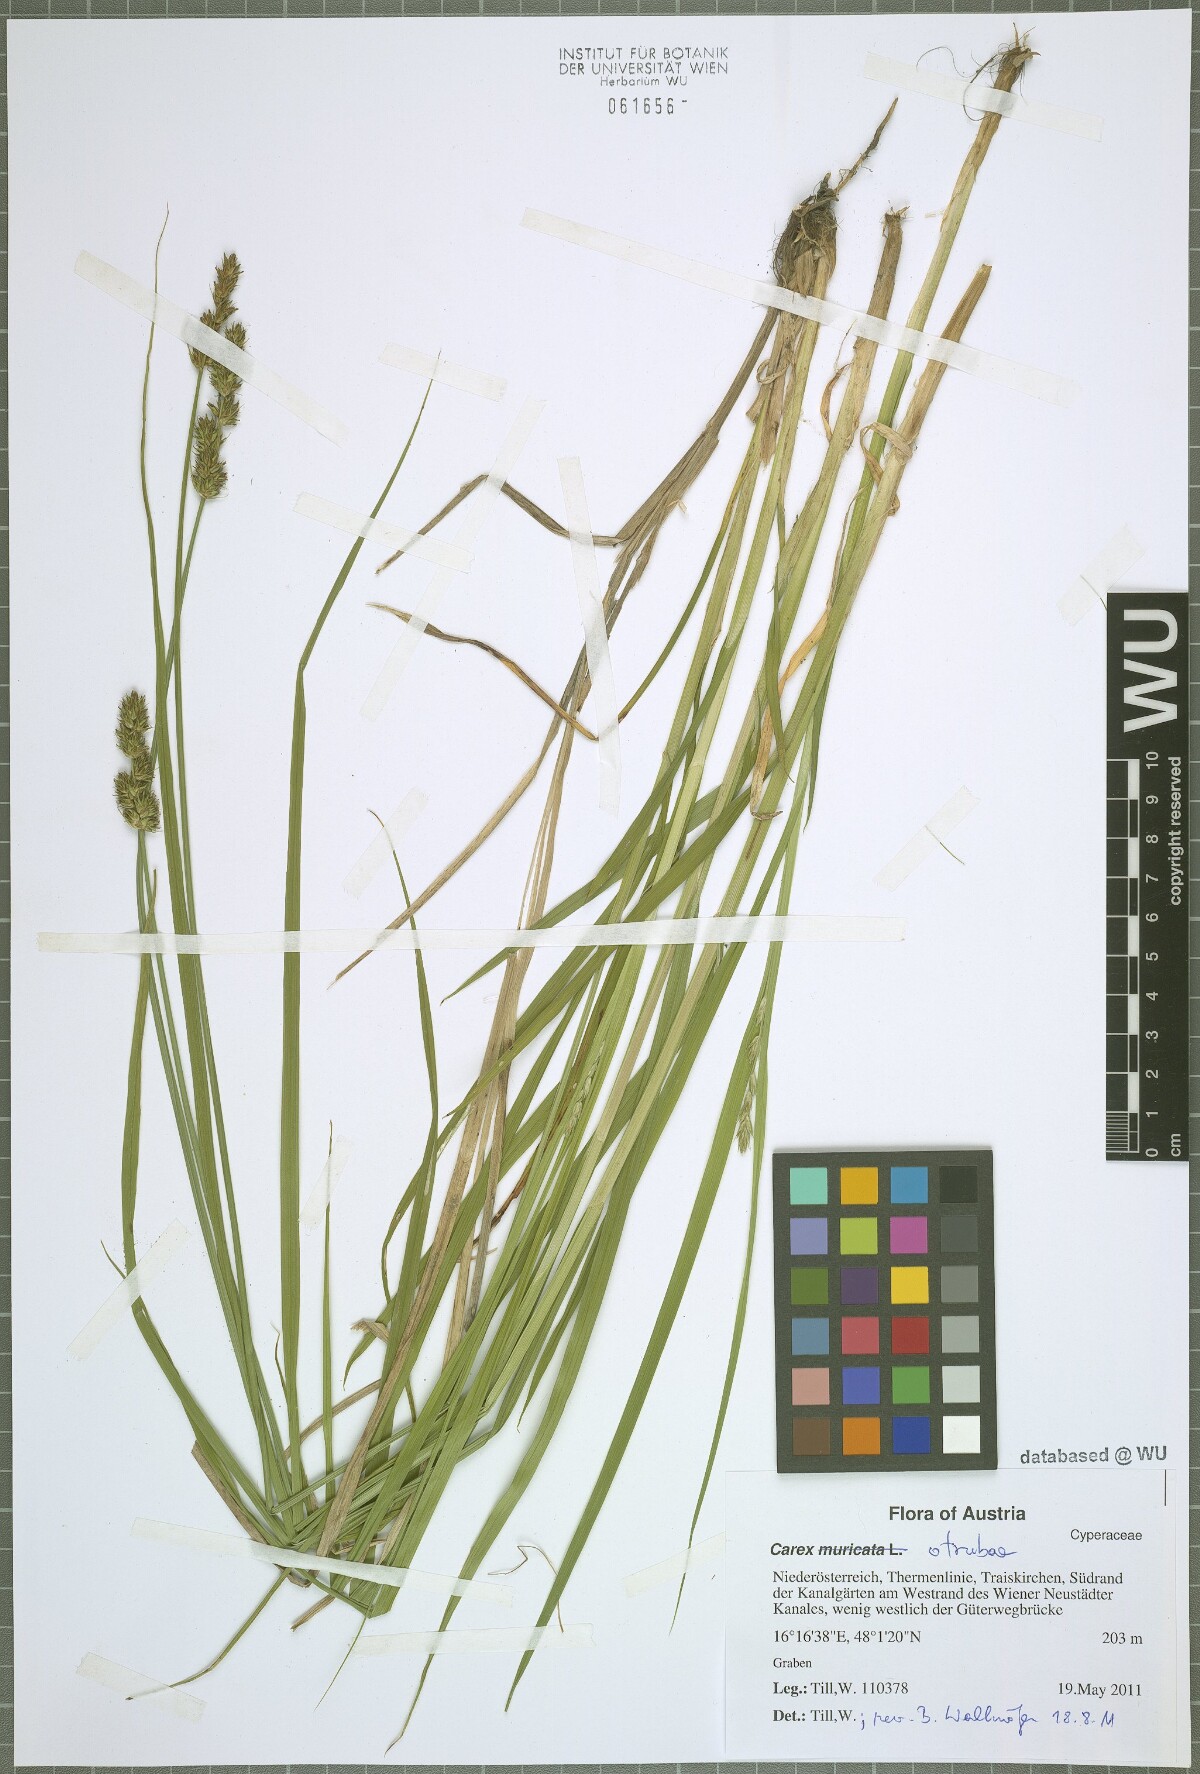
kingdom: Plantae
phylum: Tracheophyta
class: Liliopsida
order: Poales
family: Cyperaceae
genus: Carex
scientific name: Carex otrubae
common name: False fox-sedge
